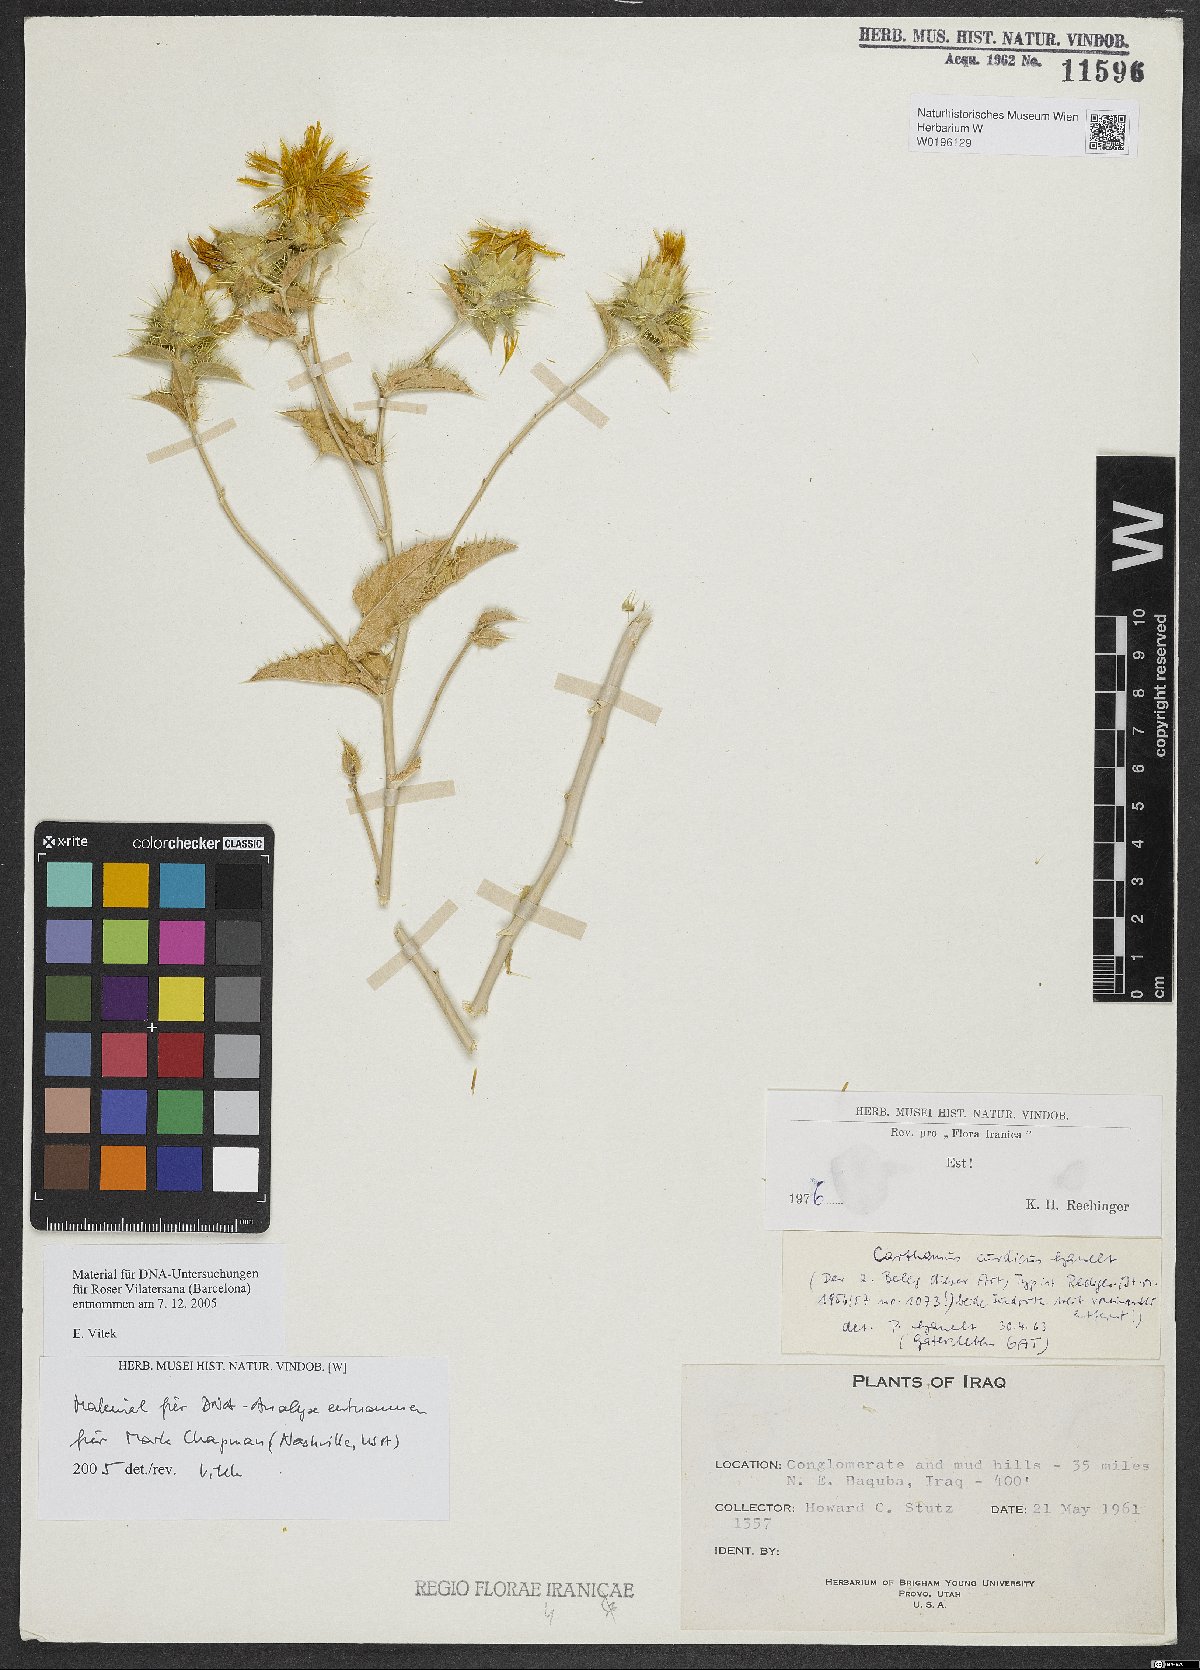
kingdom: Plantae
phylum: Tracheophyta
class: Magnoliopsida
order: Asterales
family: Asteraceae
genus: Carthamus
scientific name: Carthamus curdicus
